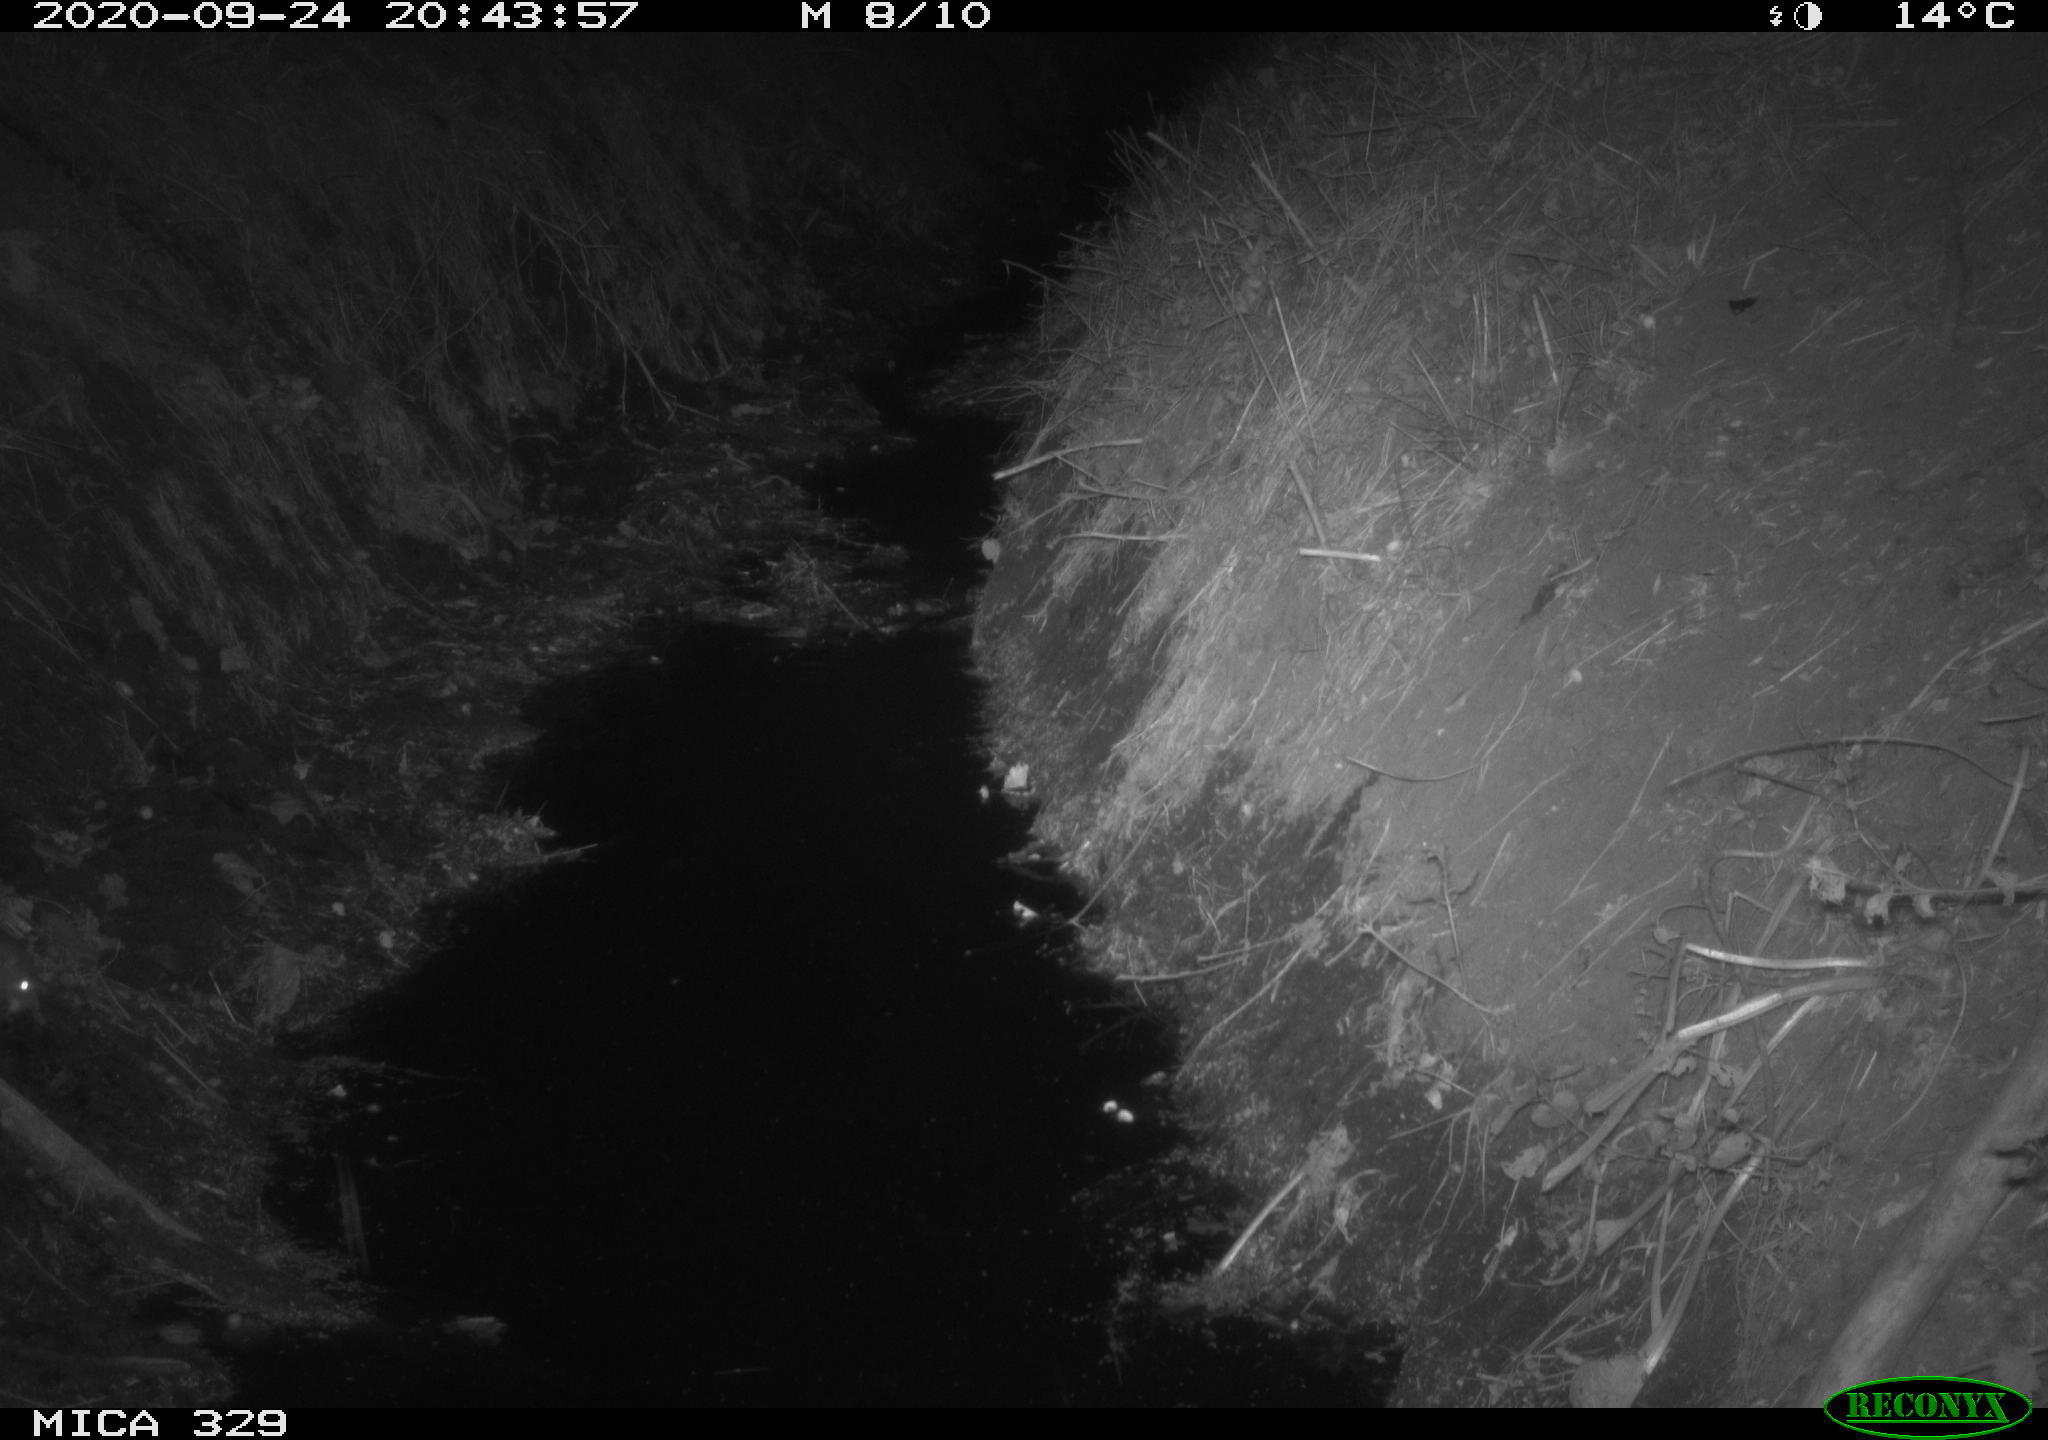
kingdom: Animalia
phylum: Chordata
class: Mammalia
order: Rodentia
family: Muridae
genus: Rattus
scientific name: Rattus norvegicus
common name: Brown rat
